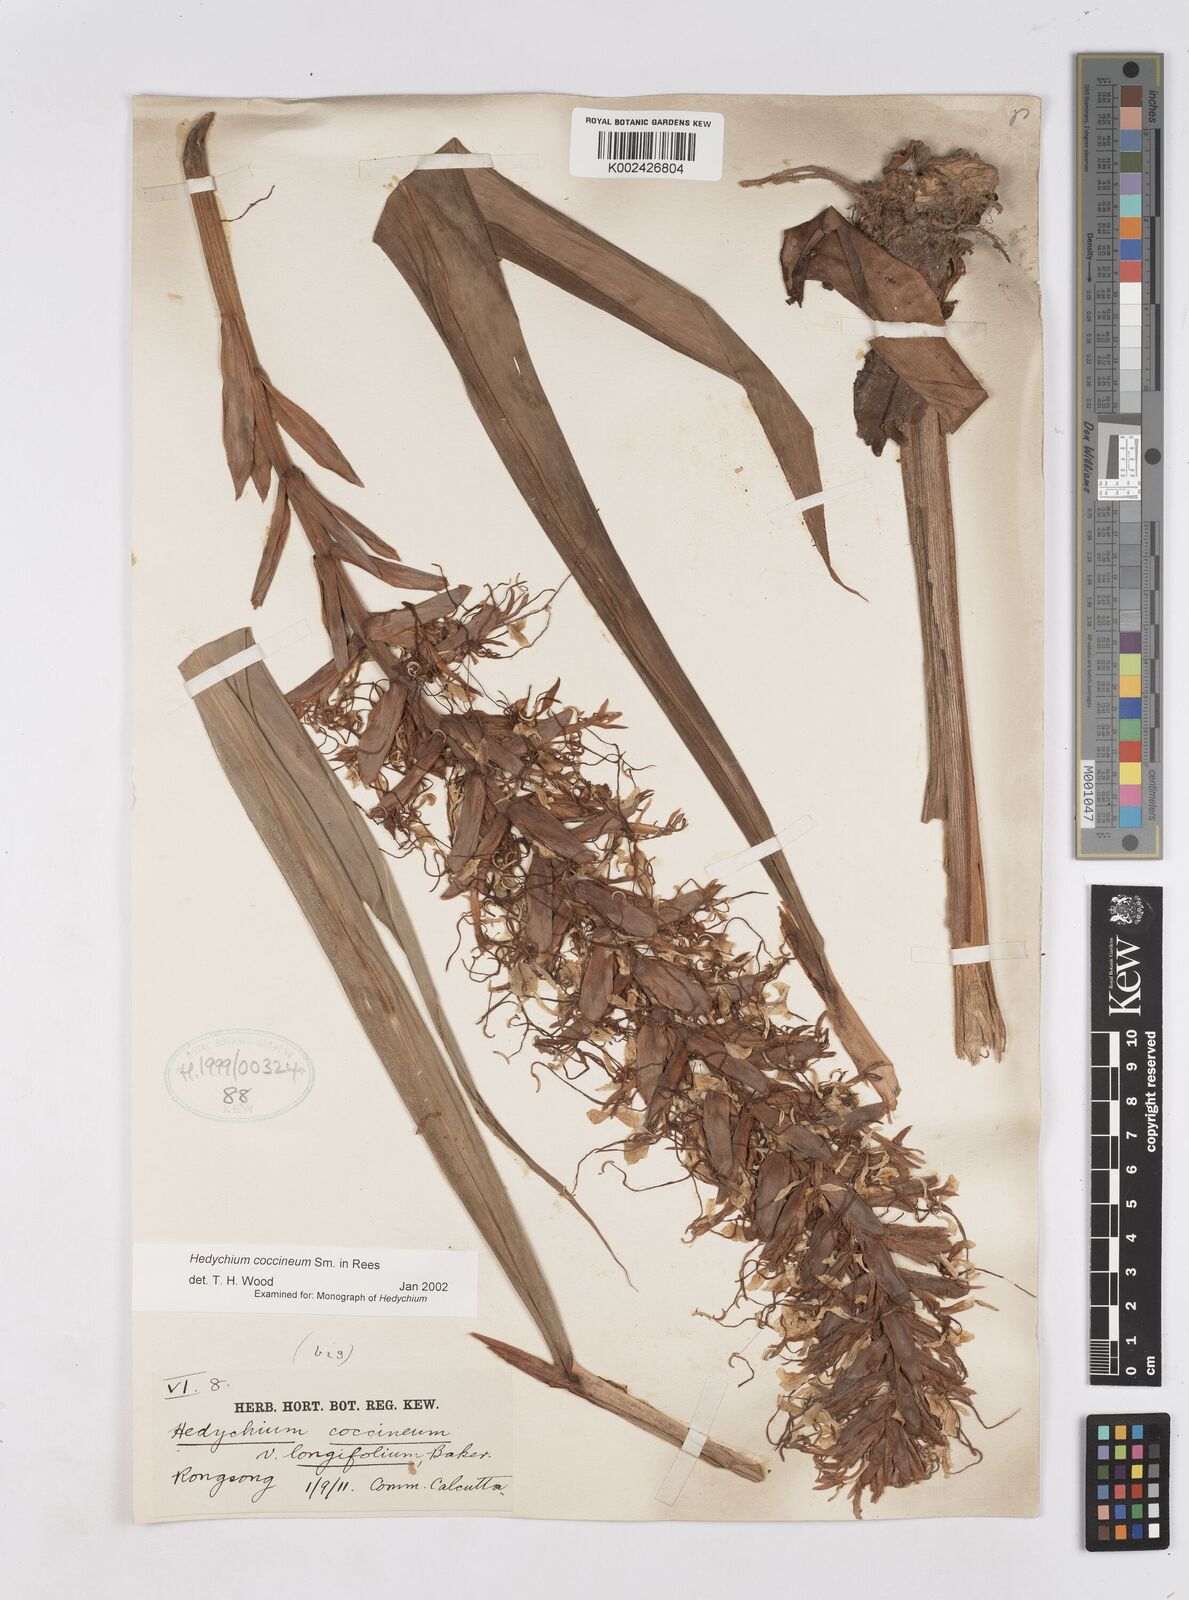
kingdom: Plantae
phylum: Tracheophyta
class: Liliopsida
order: Zingiberales
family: Zingiberaceae
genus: Hedychium
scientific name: Hedychium coccineum
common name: Red ginger-lily
